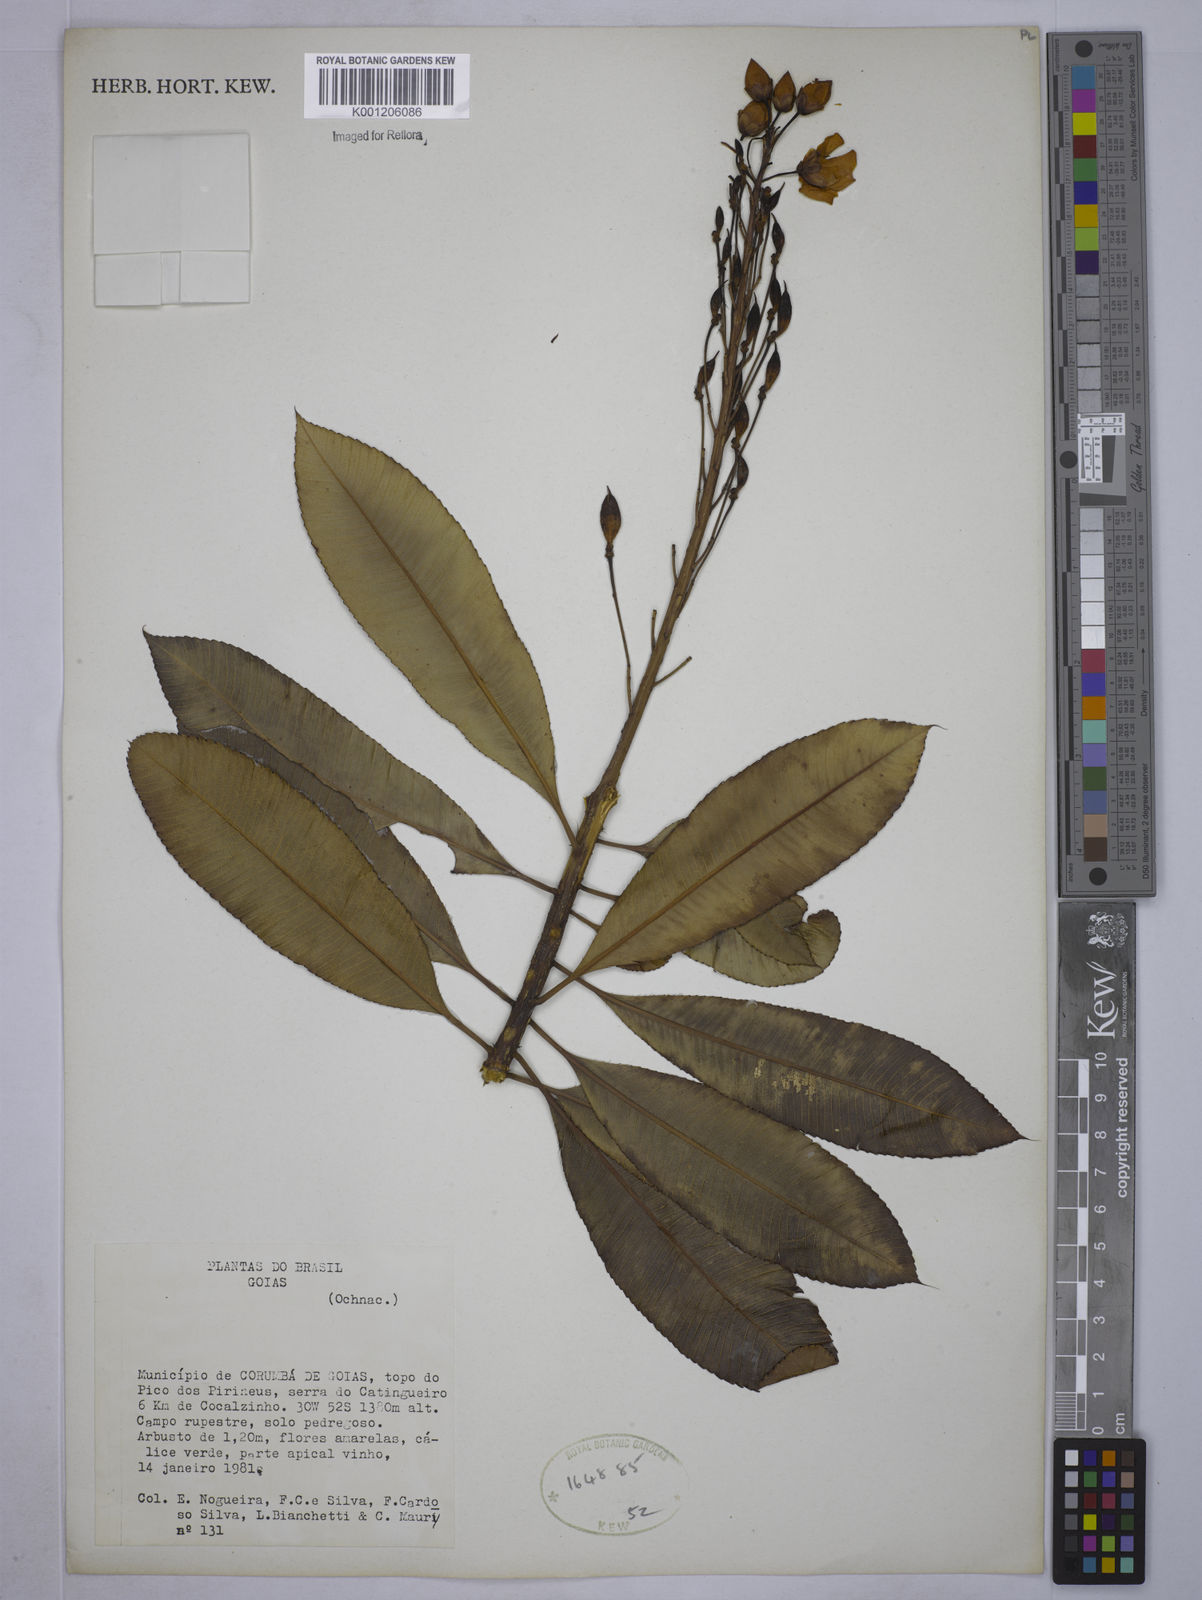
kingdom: Plantae
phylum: Tracheophyta
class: Magnoliopsida
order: Malpighiales
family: Ochnaceae
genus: Luxemburgia
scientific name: Luxemburgia macedoi
